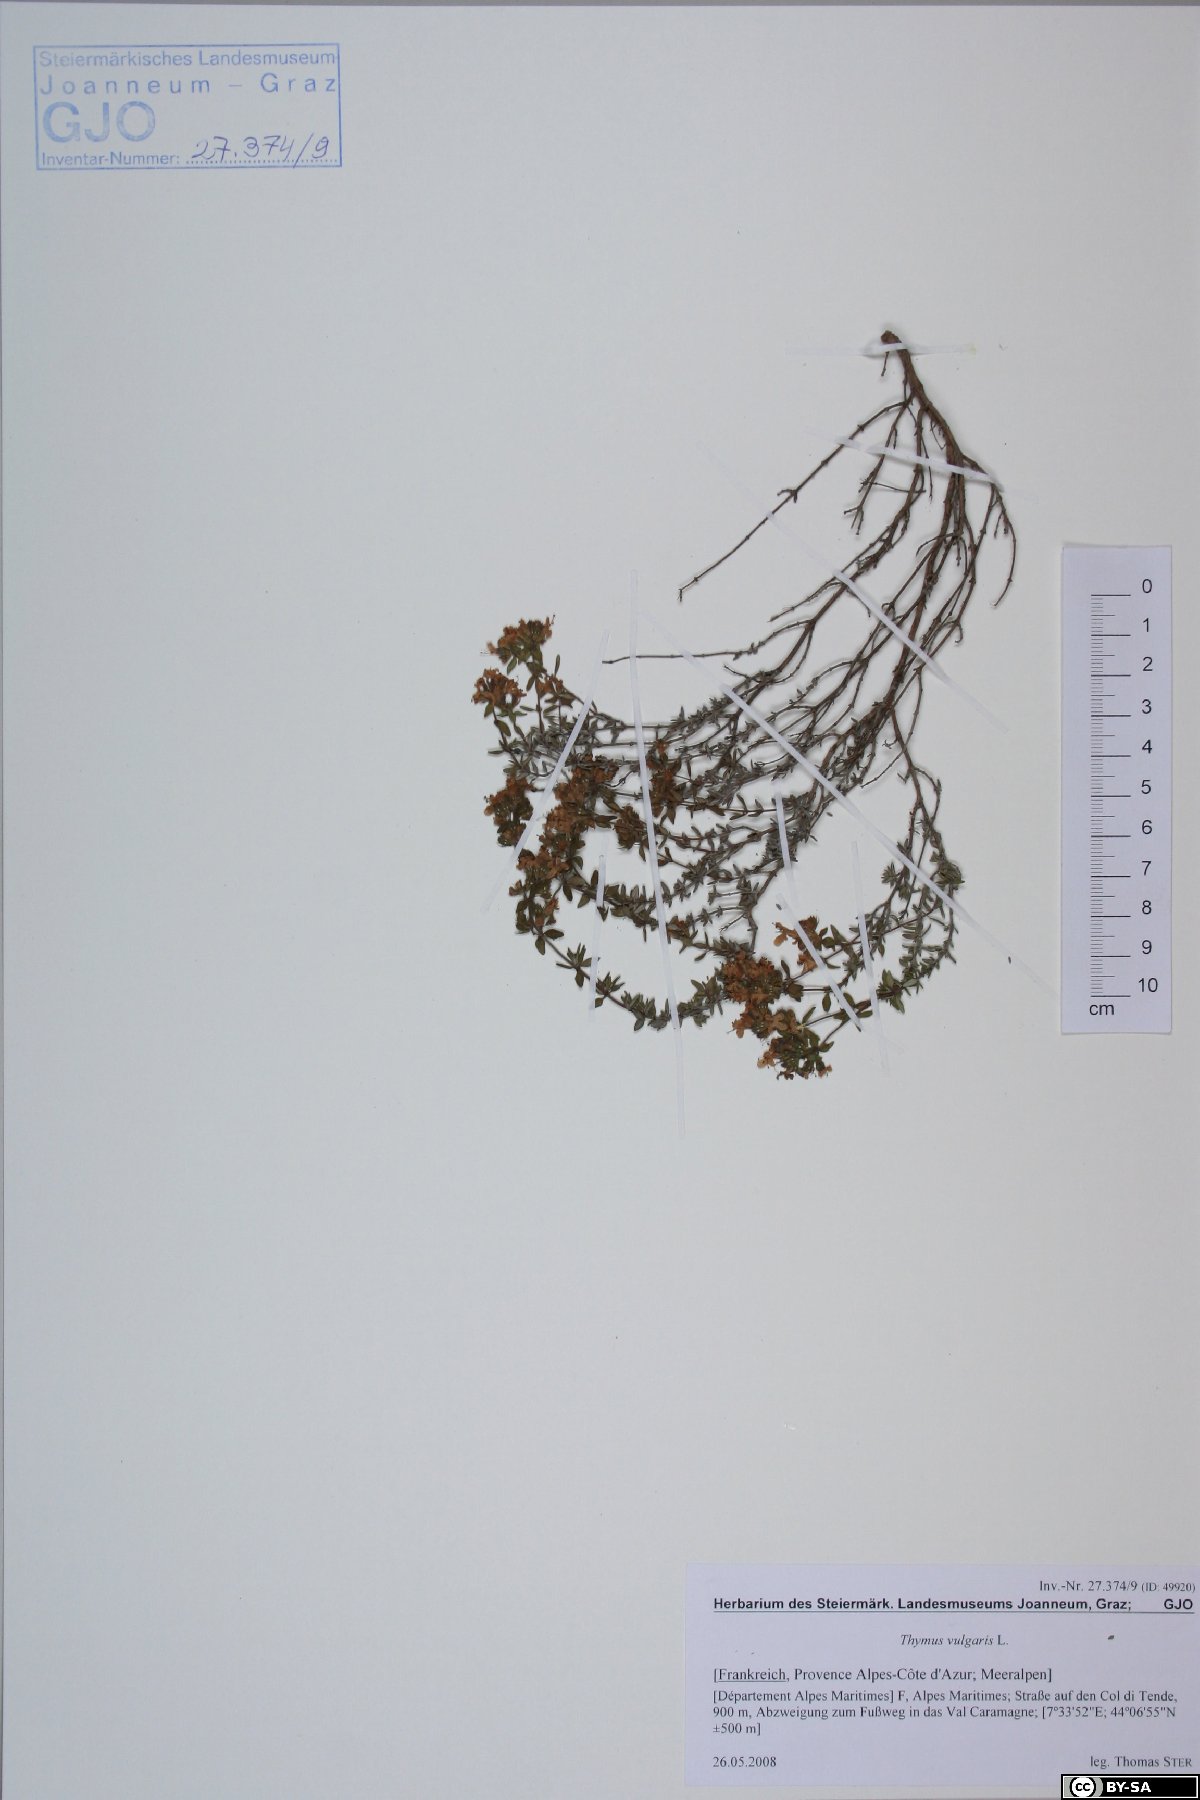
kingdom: Plantae
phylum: Tracheophyta
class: Magnoliopsida
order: Lamiales
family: Lamiaceae
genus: Thymus
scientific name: Thymus vulgaris
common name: Garden thyme
